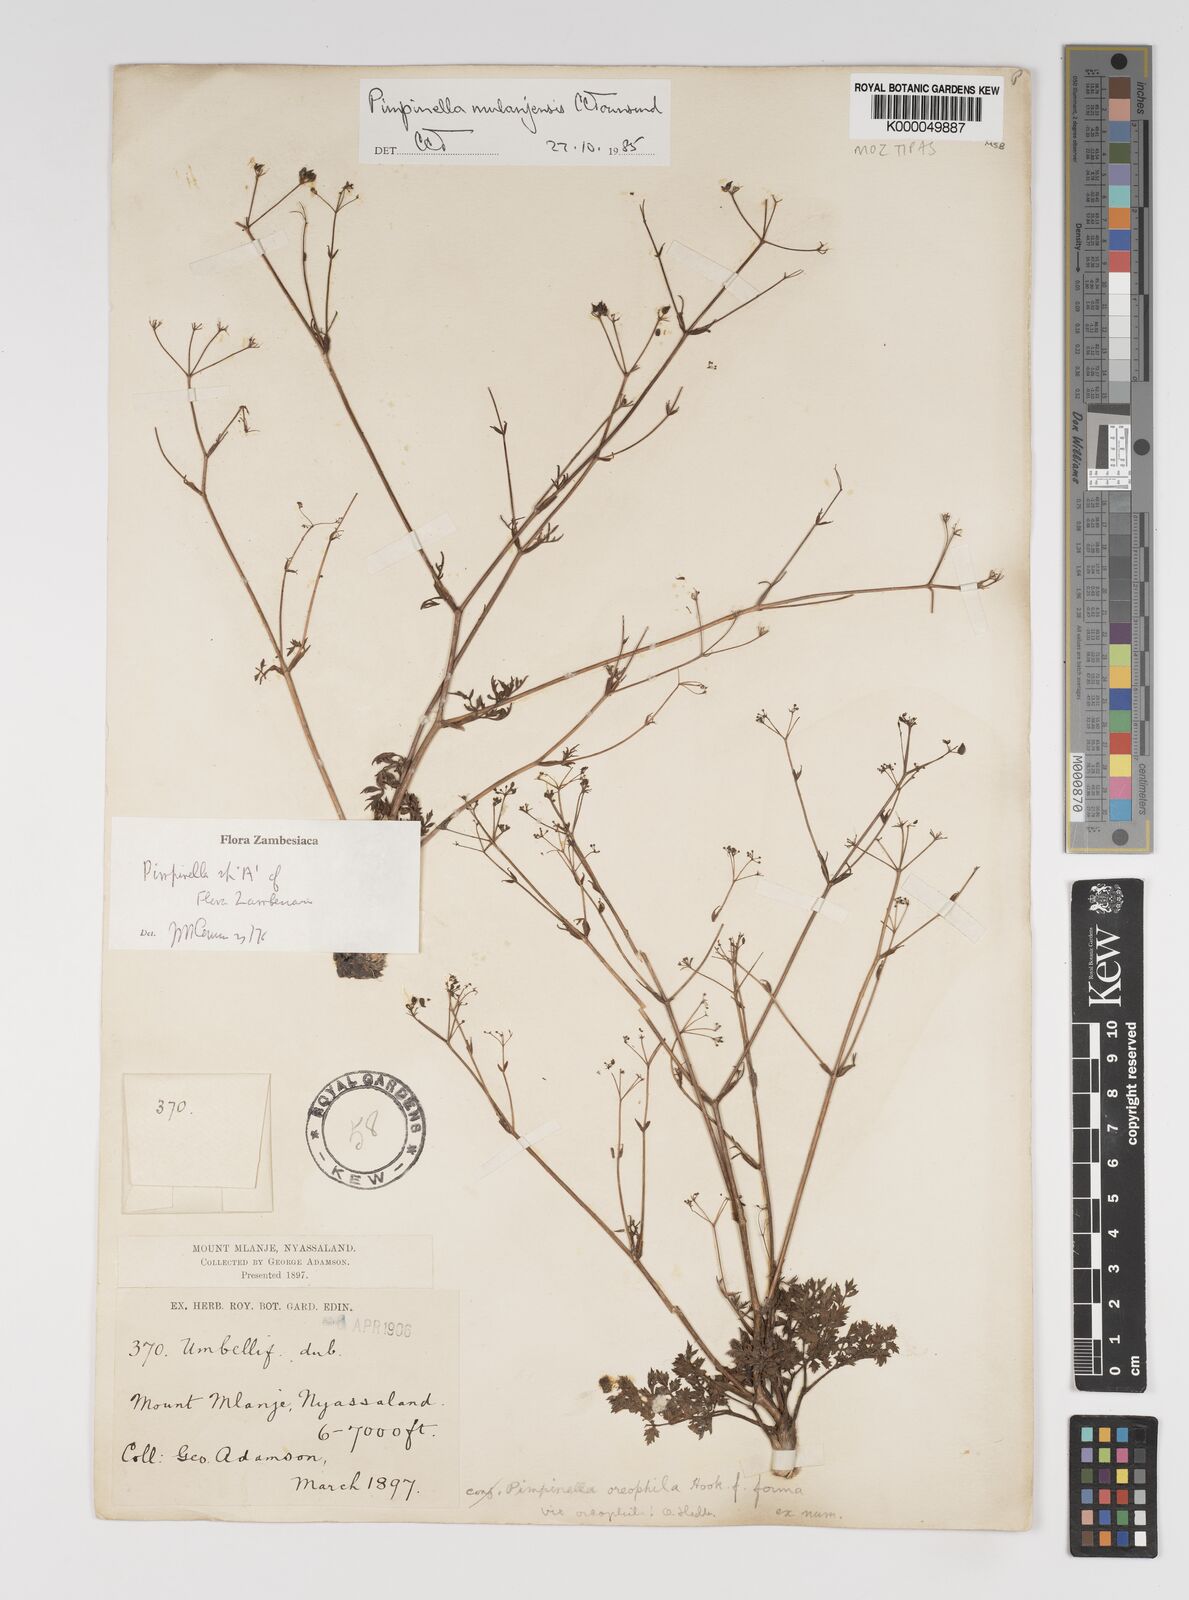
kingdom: Plantae
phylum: Tracheophyta
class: Magnoliopsida
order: Apiales
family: Apiaceae
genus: Pimpinella
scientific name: Pimpinella mulanjensis
